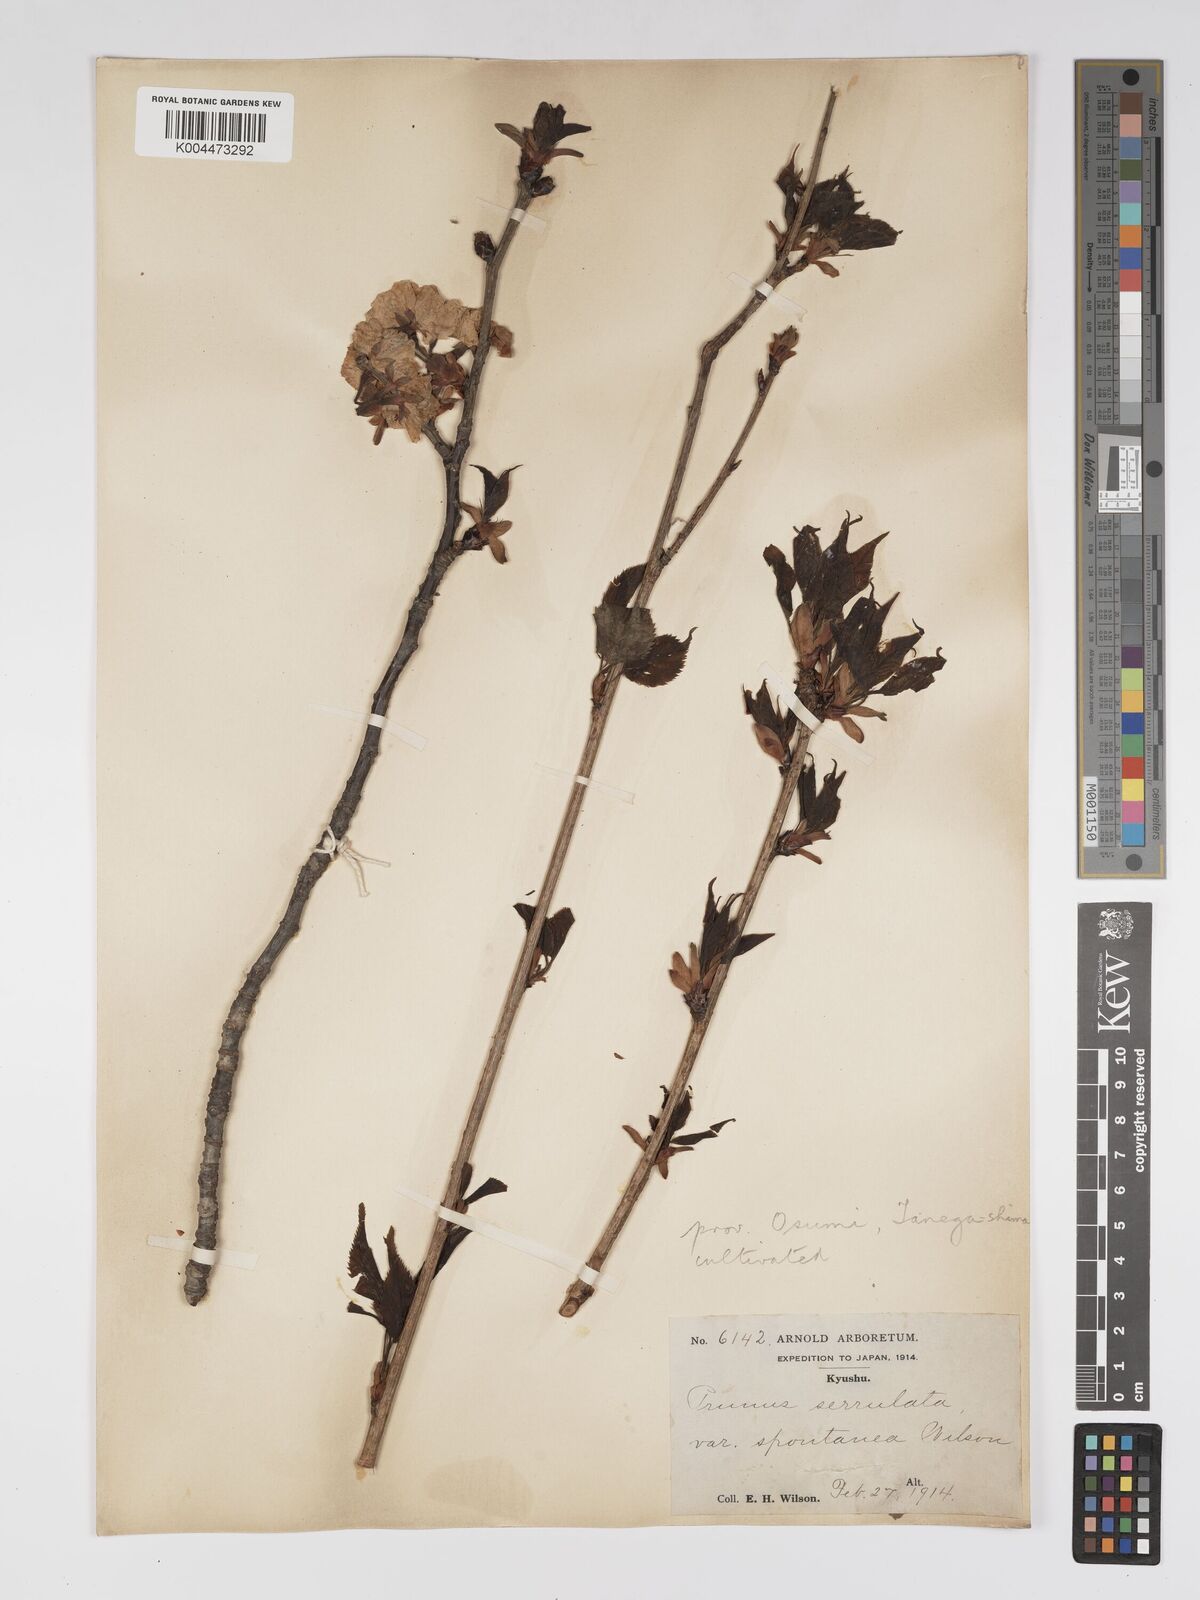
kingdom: Plantae
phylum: Tracheophyta
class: Magnoliopsida
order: Rosales
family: Rosaceae
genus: Prunus
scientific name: Prunus serrulata
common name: Japanese cherry
